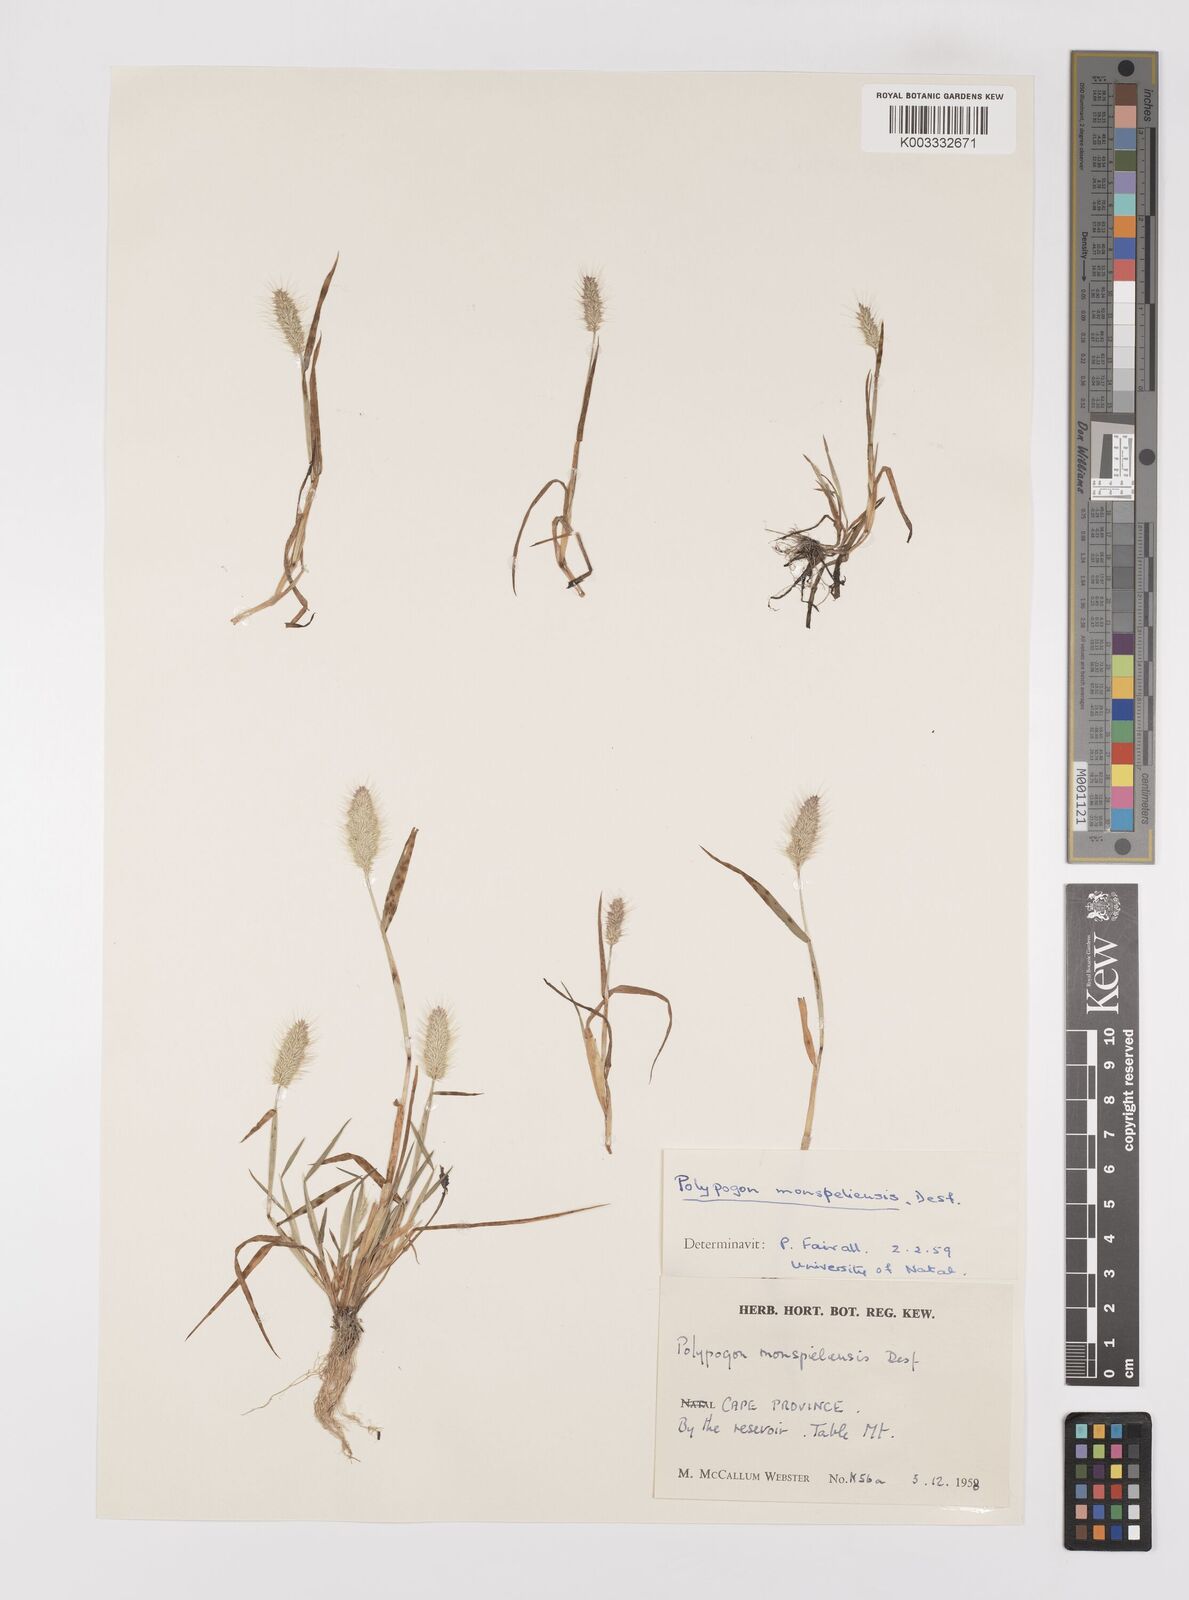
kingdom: Plantae
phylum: Tracheophyta
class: Liliopsida
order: Poales
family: Poaceae
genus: Polypogon
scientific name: Polypogon monspeliensis
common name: Annual rabbitsfoot grass
